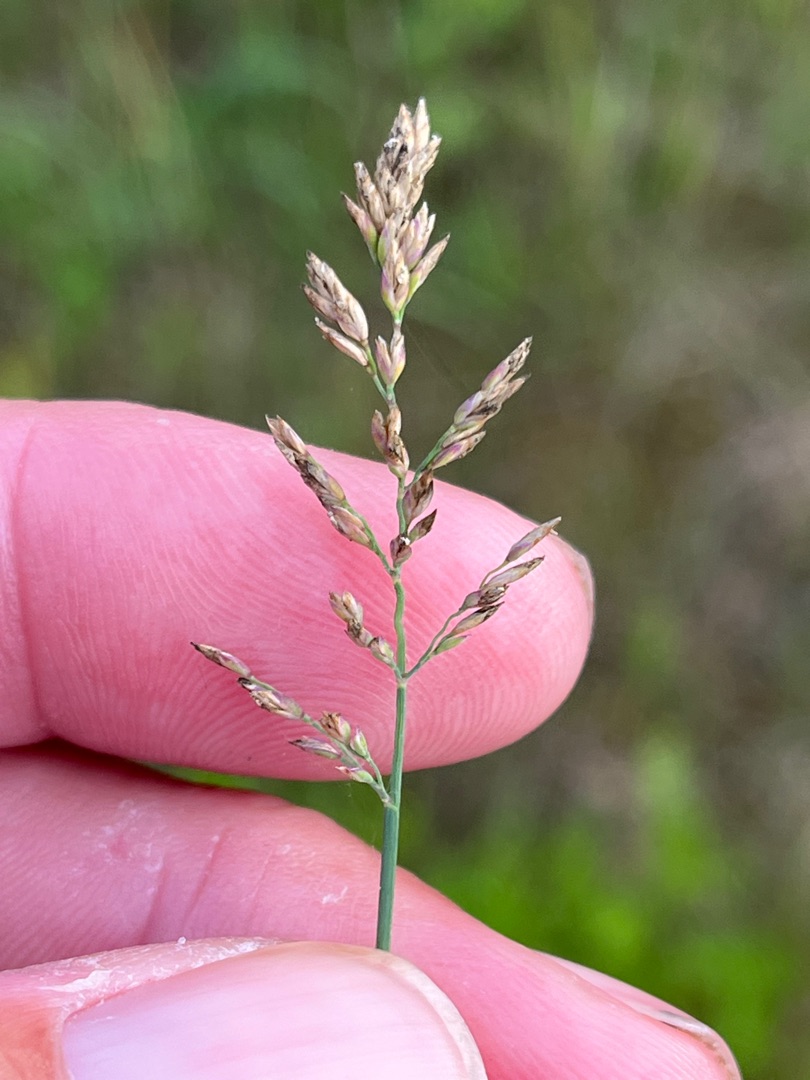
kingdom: Plantae
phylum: Tracheophyta
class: Liliopsida
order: Poales
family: Poaceae
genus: Poa
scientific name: Poa compressa
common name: Fladstrået rapgræs
